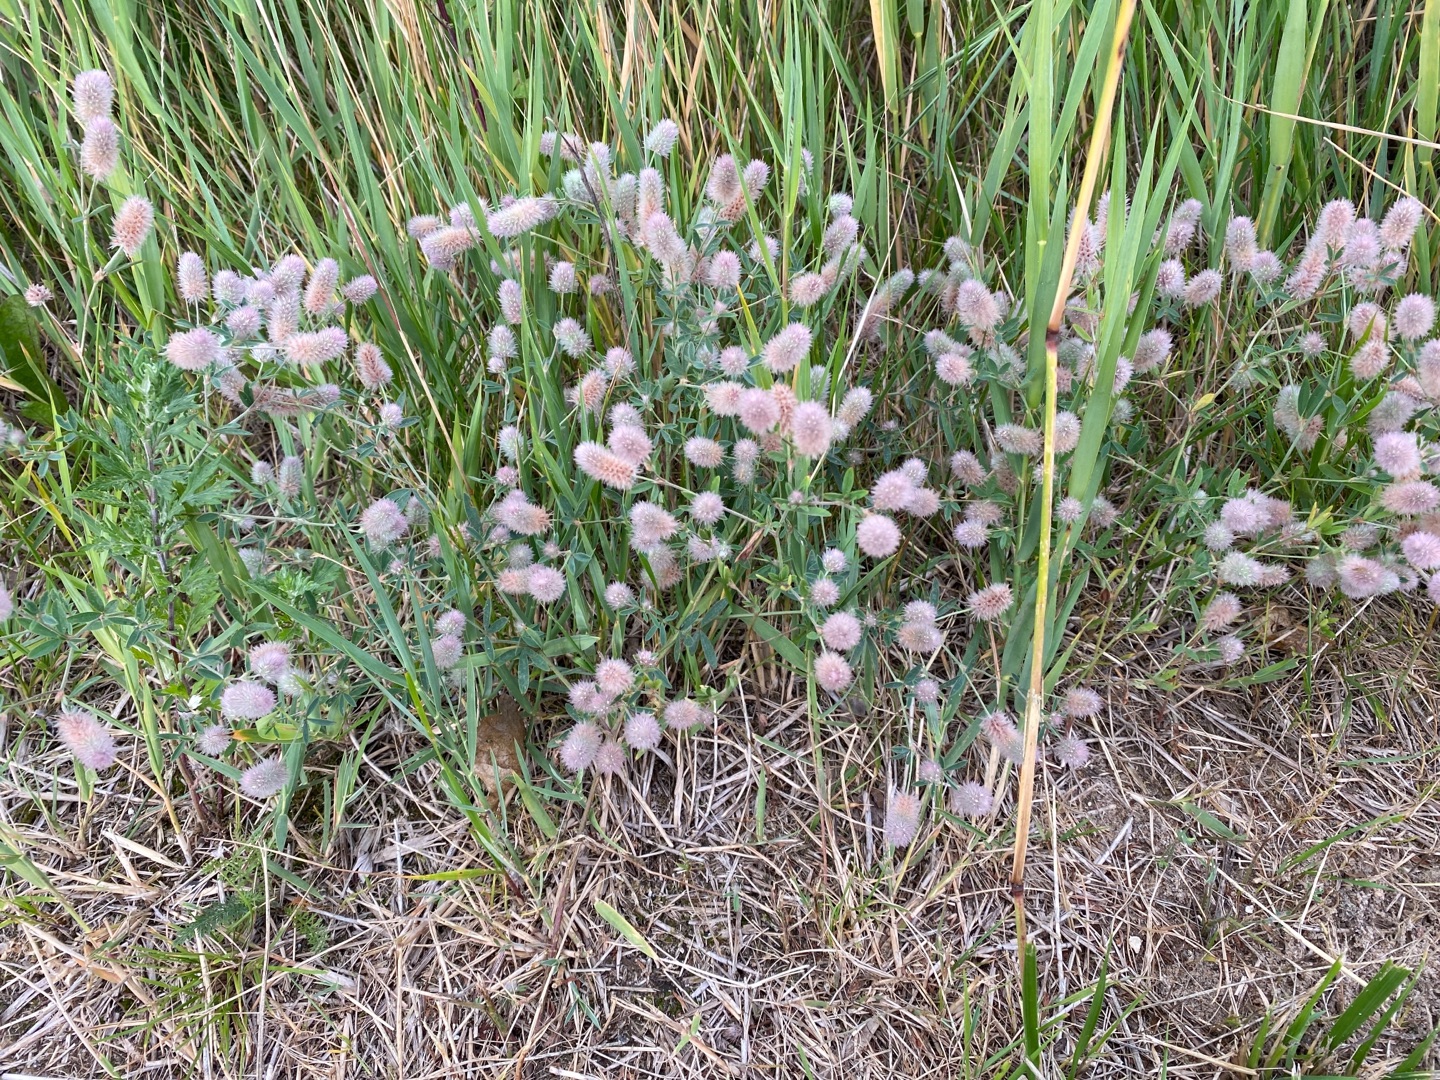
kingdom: Plantae
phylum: Tracheophyta
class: Magnoliopsida
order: Fabales
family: Fabaceae
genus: Trifolium
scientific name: Trifolium arvense
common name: Hare-kløver
